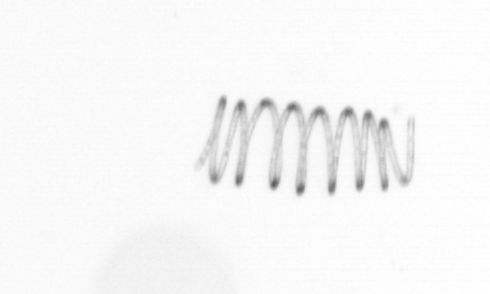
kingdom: Chromista
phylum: Ochrophyta
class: Bacillariophyceae
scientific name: Bacillariophyceae
